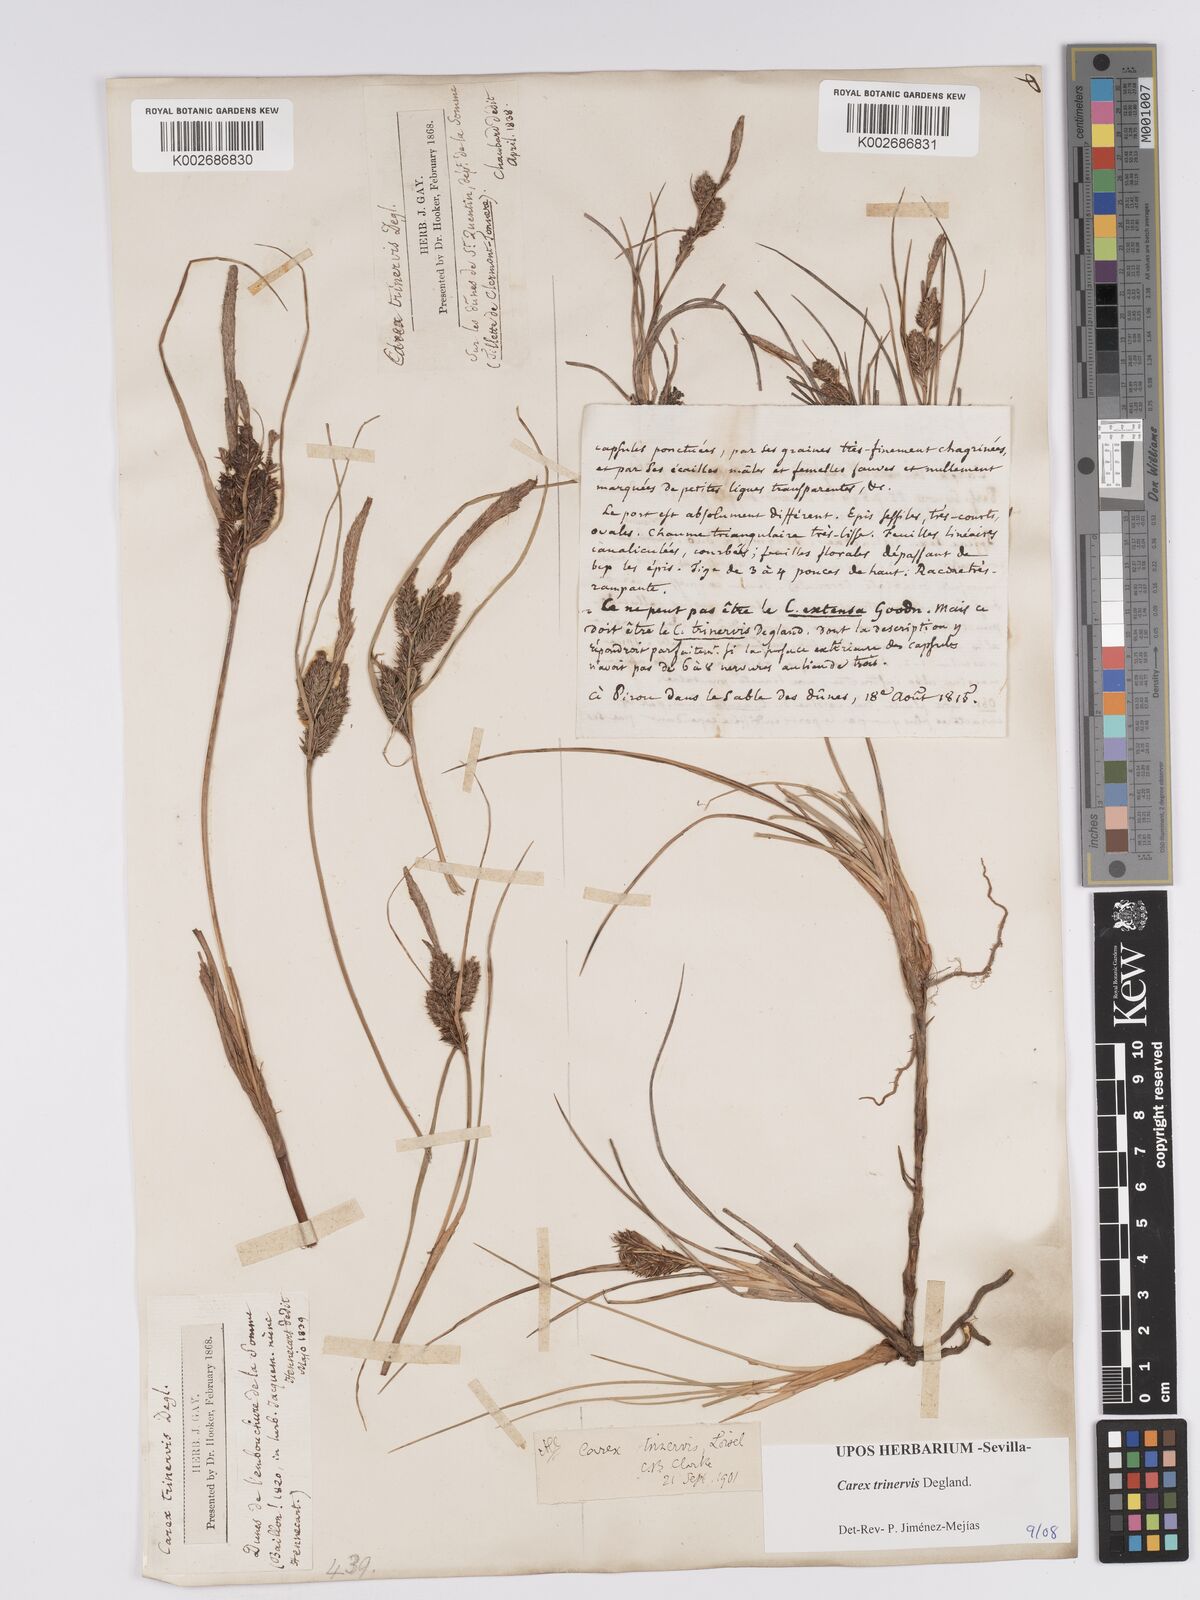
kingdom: Plantae
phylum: Tracheophyta
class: Liliopsida
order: Poales
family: Cyperaceae
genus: Carex
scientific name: Carex trinervis
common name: Three-nerved sedge
